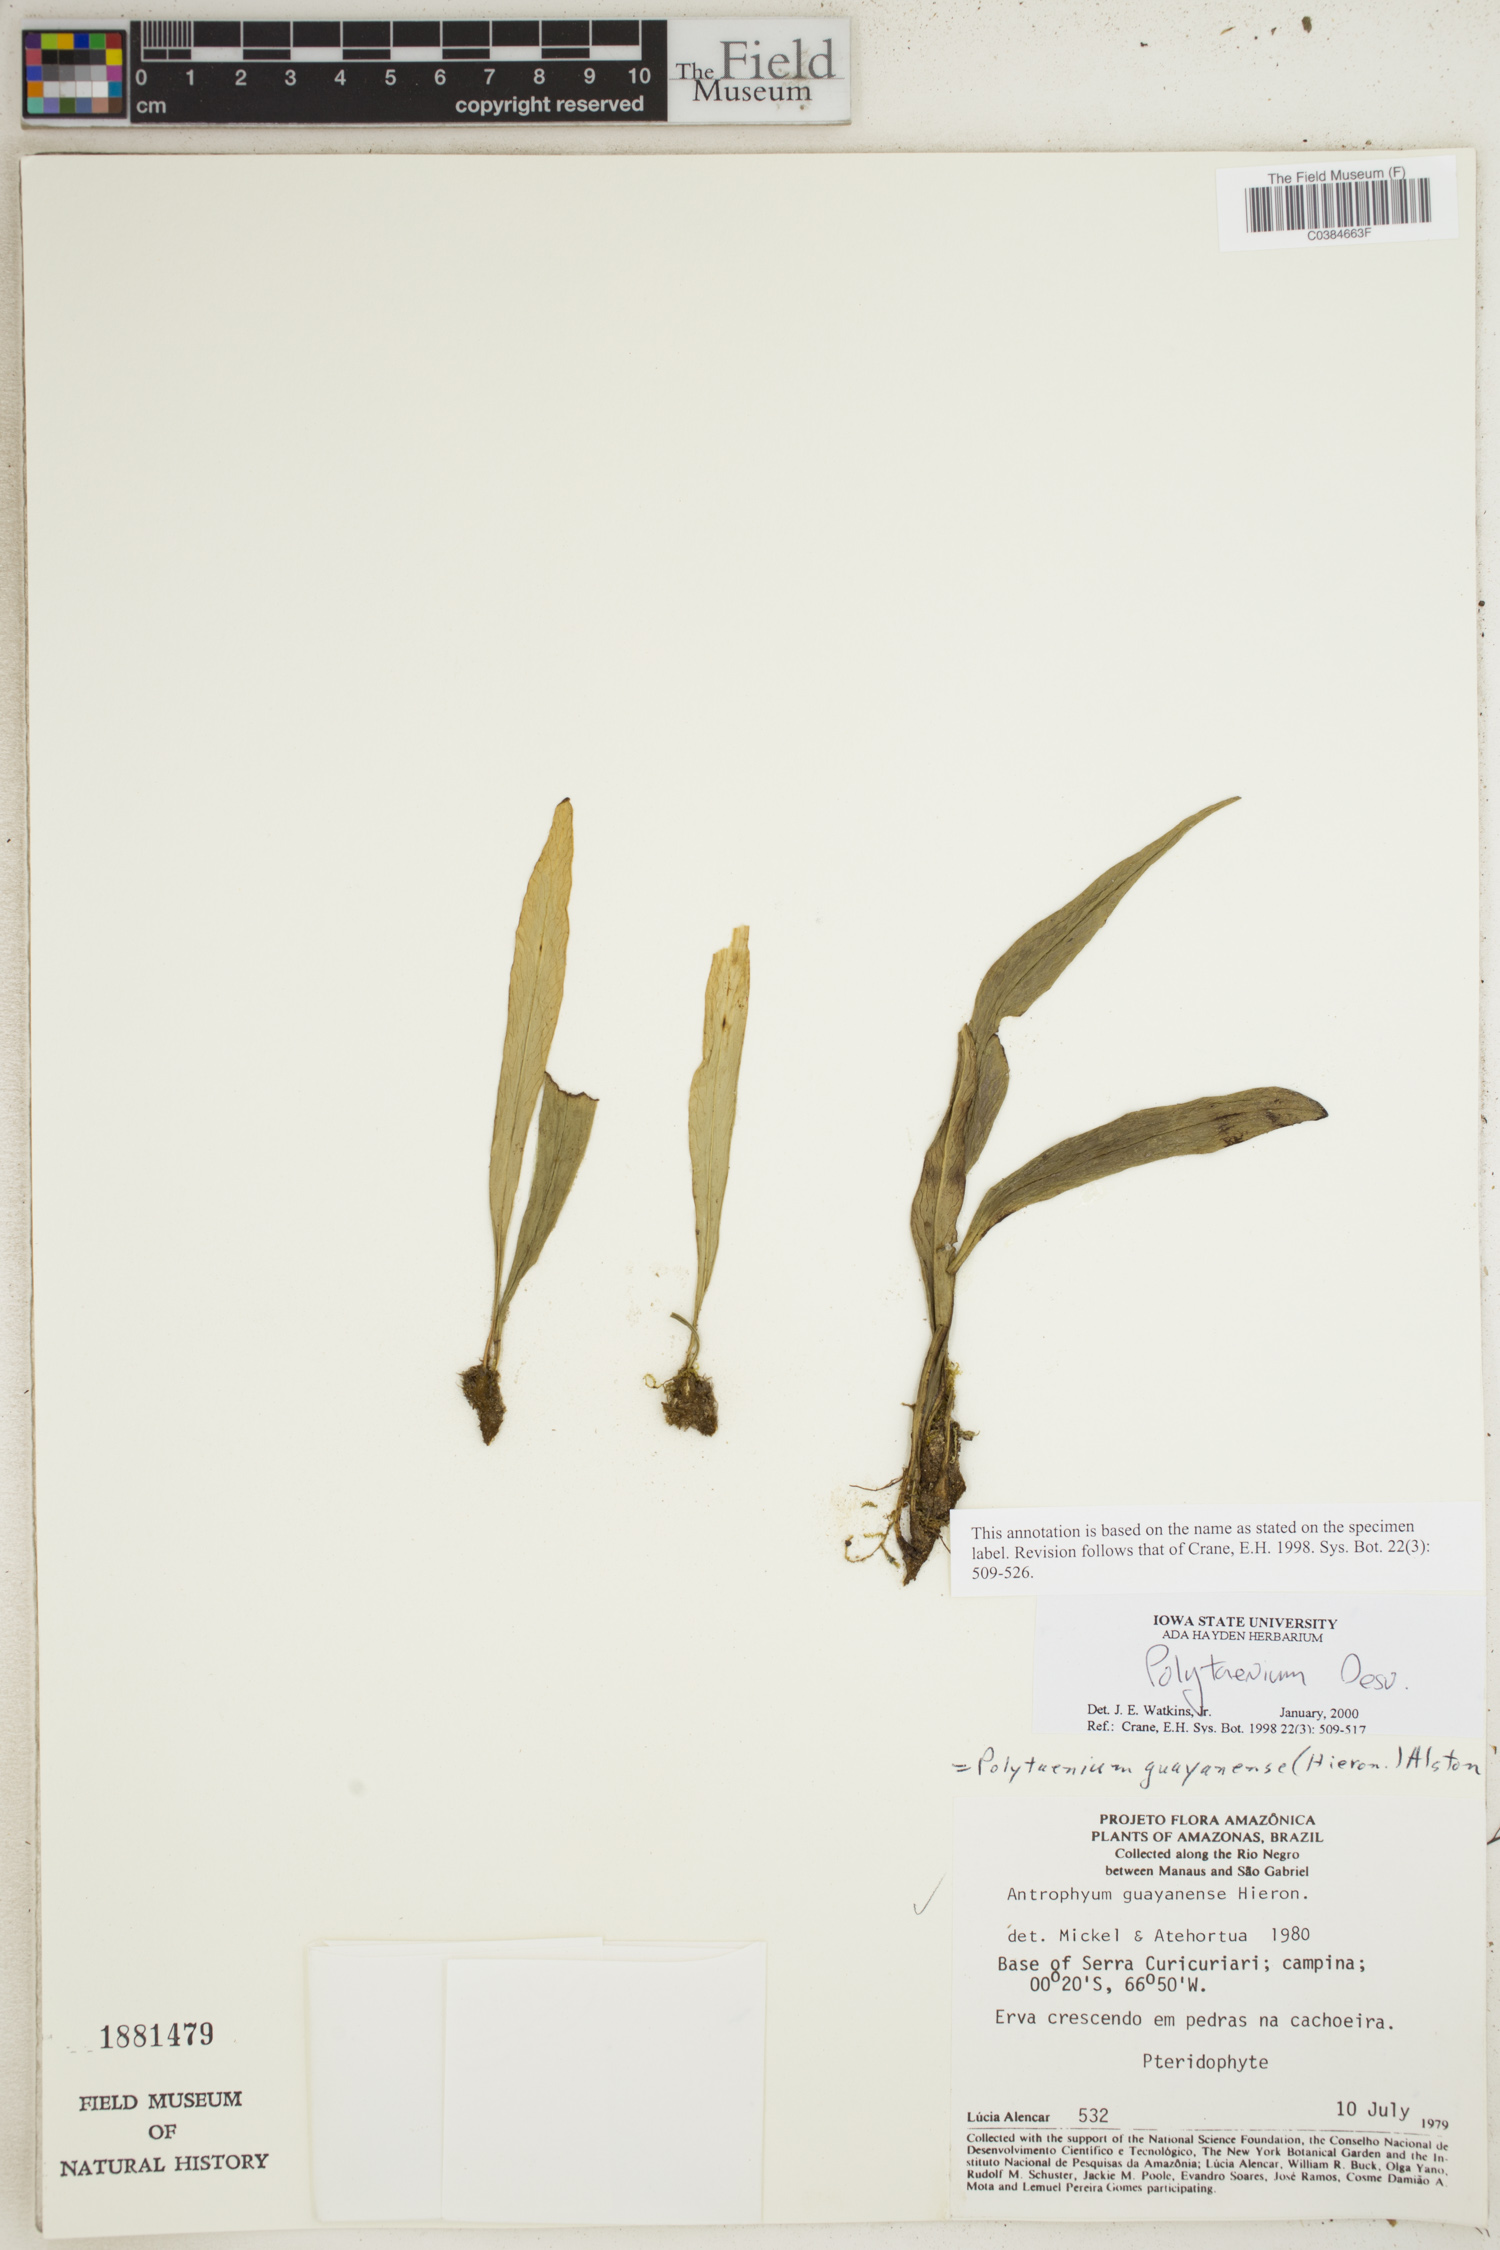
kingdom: Plantae
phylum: Tracheophyta
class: Polypodiopsida
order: Polypodiales
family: Pteridaceae
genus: Polytaenium
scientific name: Polytaenium
